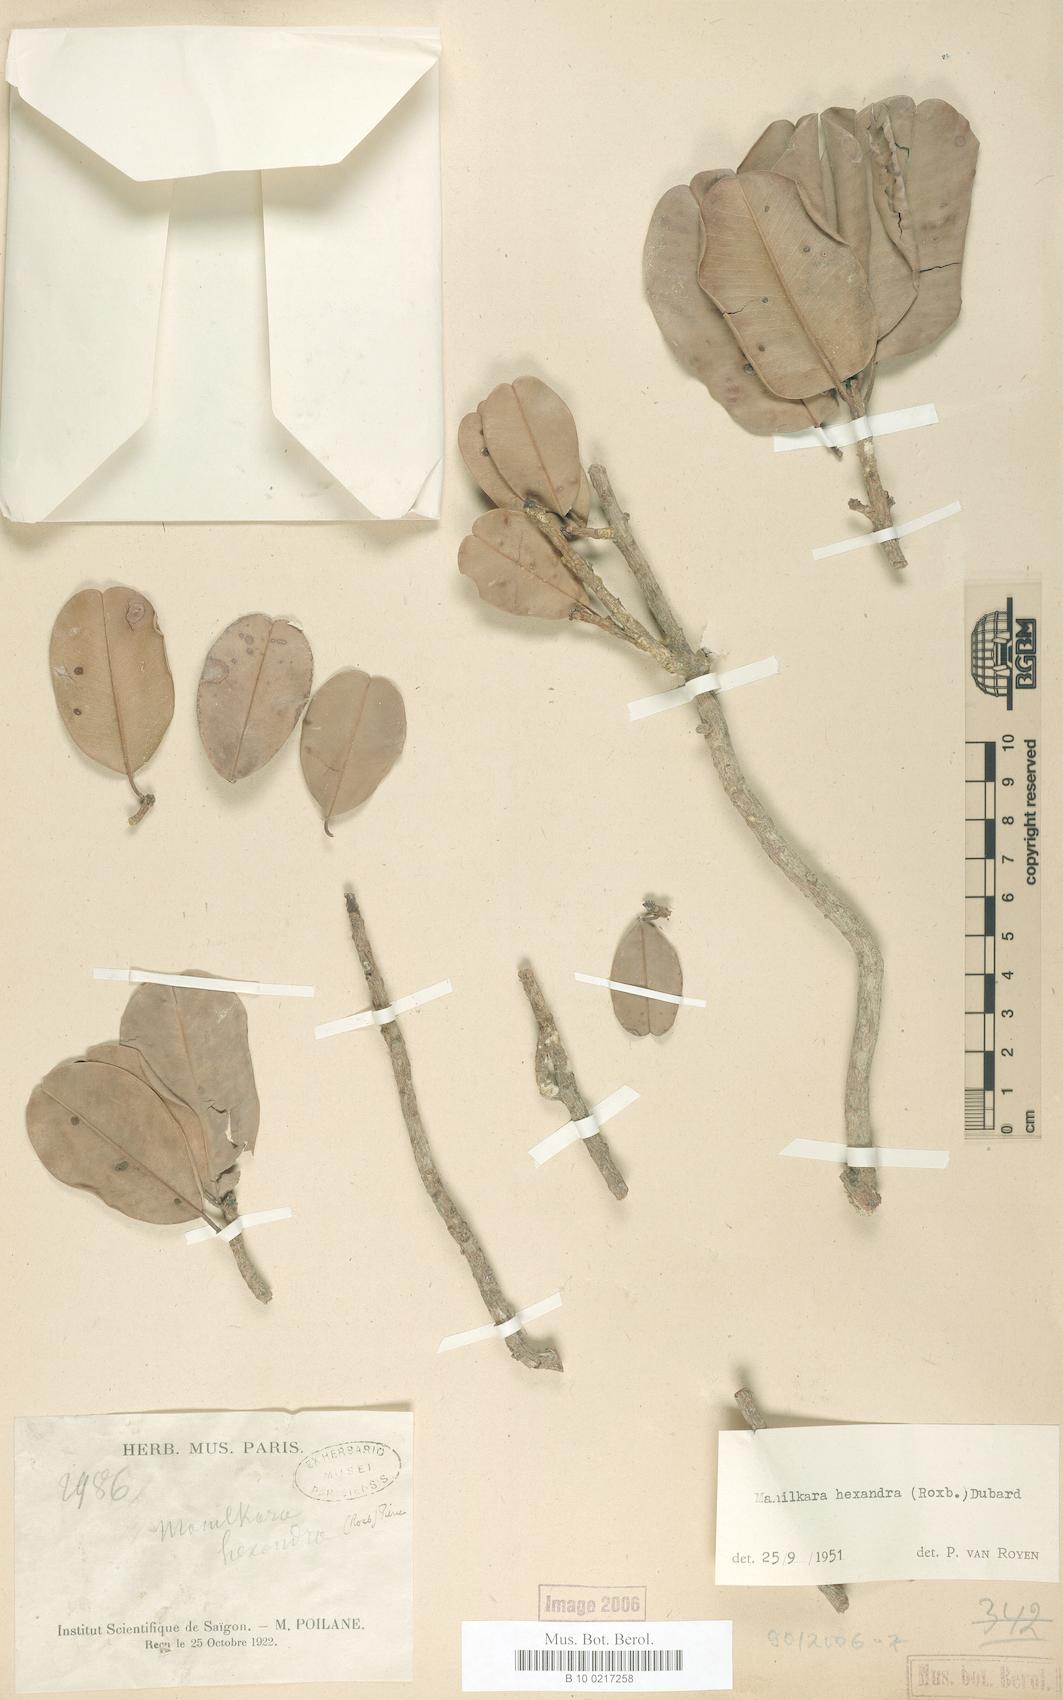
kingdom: Plantae
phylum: Tracheophyta
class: Magnoliopsida
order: Ericales
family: Sapotaceae
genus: Manilkara
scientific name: Manilkara hexandra
